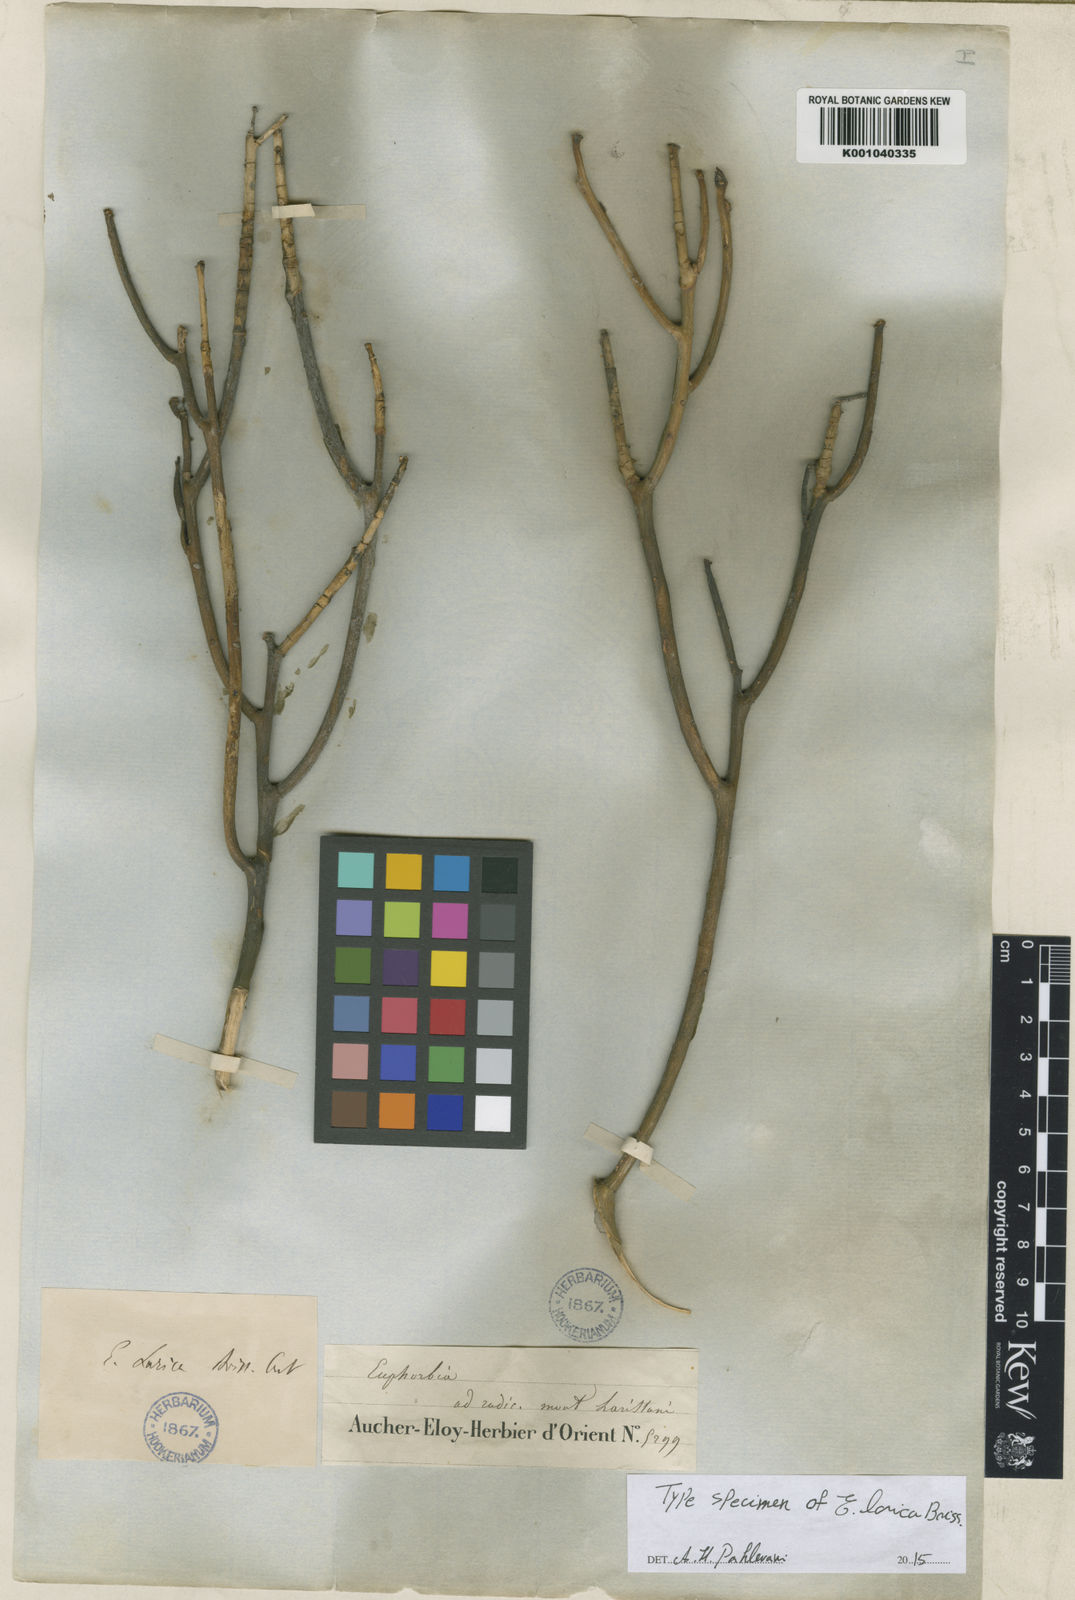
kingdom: Plantae
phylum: Tracheophyta
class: Magnoliopsida
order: Malpighiales
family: Euphorbiaceae
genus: Euphorbia
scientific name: Euphorbia larica
